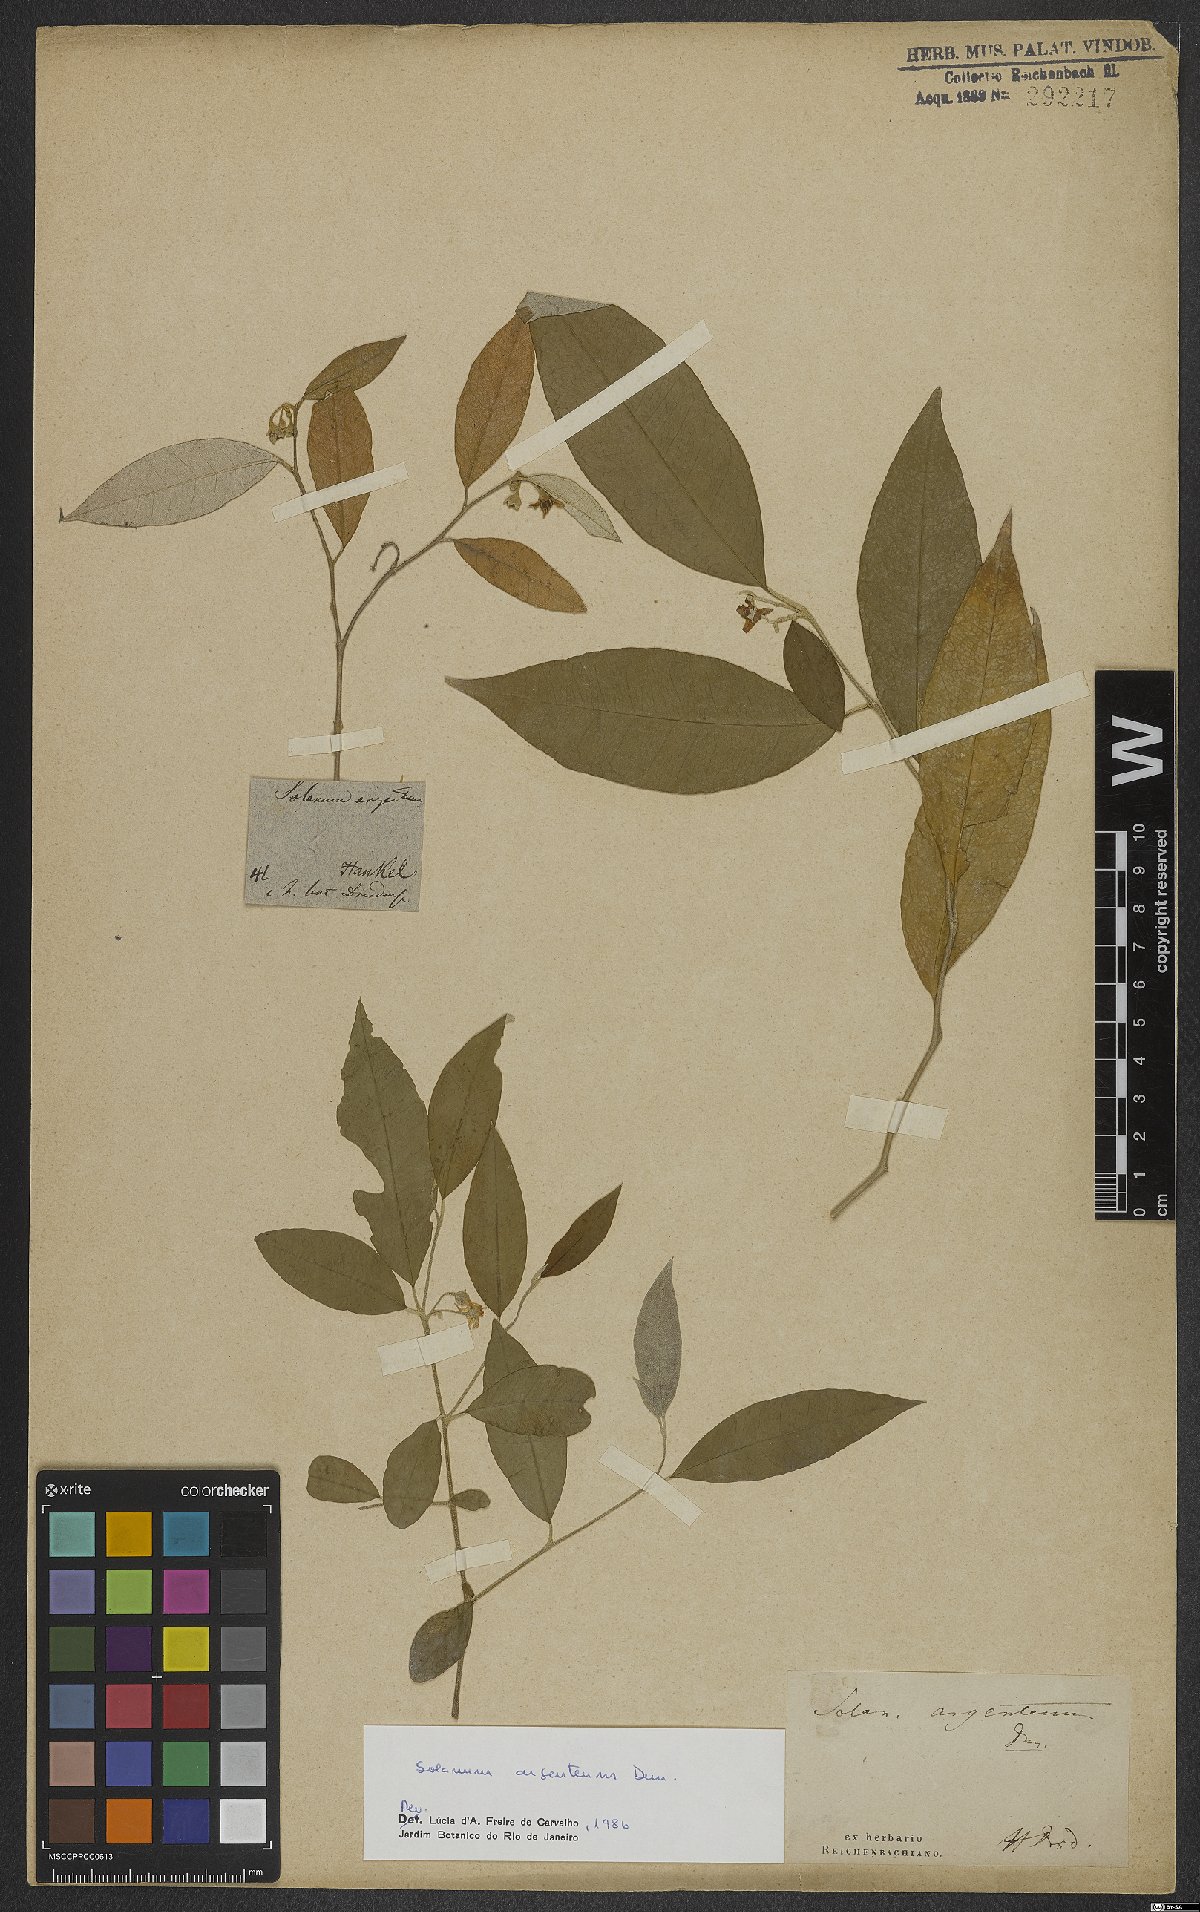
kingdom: Plantae
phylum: Tracheophyta
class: Magnoliopsida
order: Solanales
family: Solanaceae
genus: Solanum
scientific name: Solanum swartzianum
